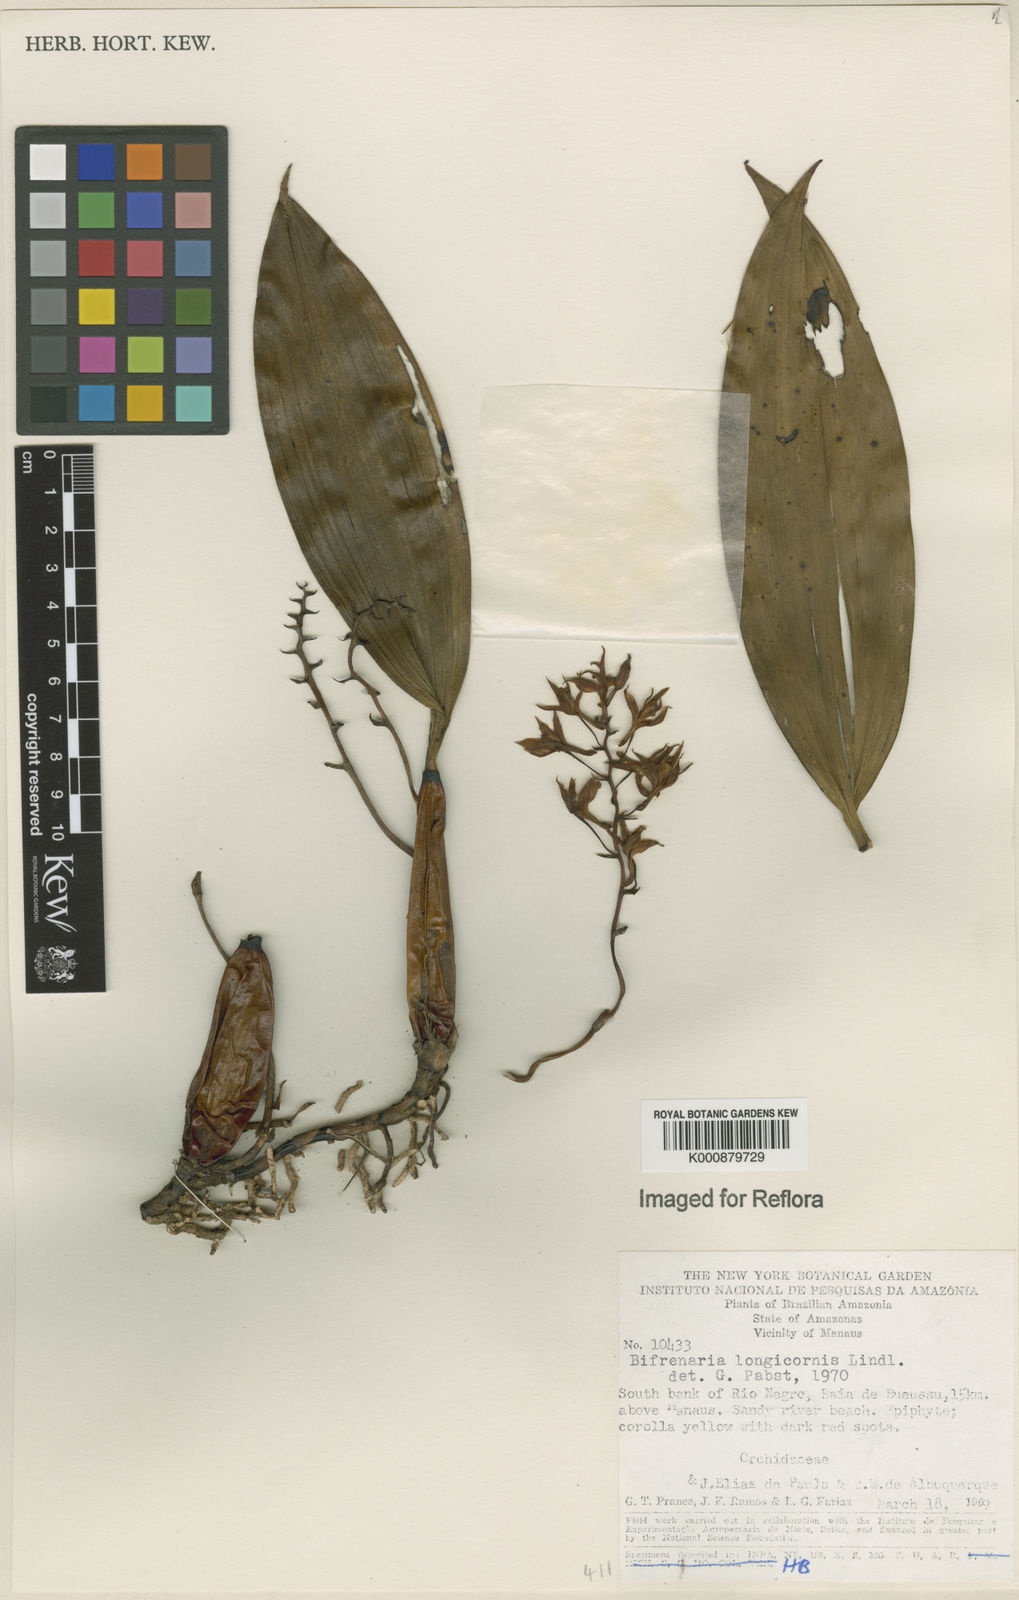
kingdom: Plantae
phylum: Tracheophyta
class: Liliopsida
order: Asparagales
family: Orchidaceae
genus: Bifrenaria
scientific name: Bifrenaria longicornis
